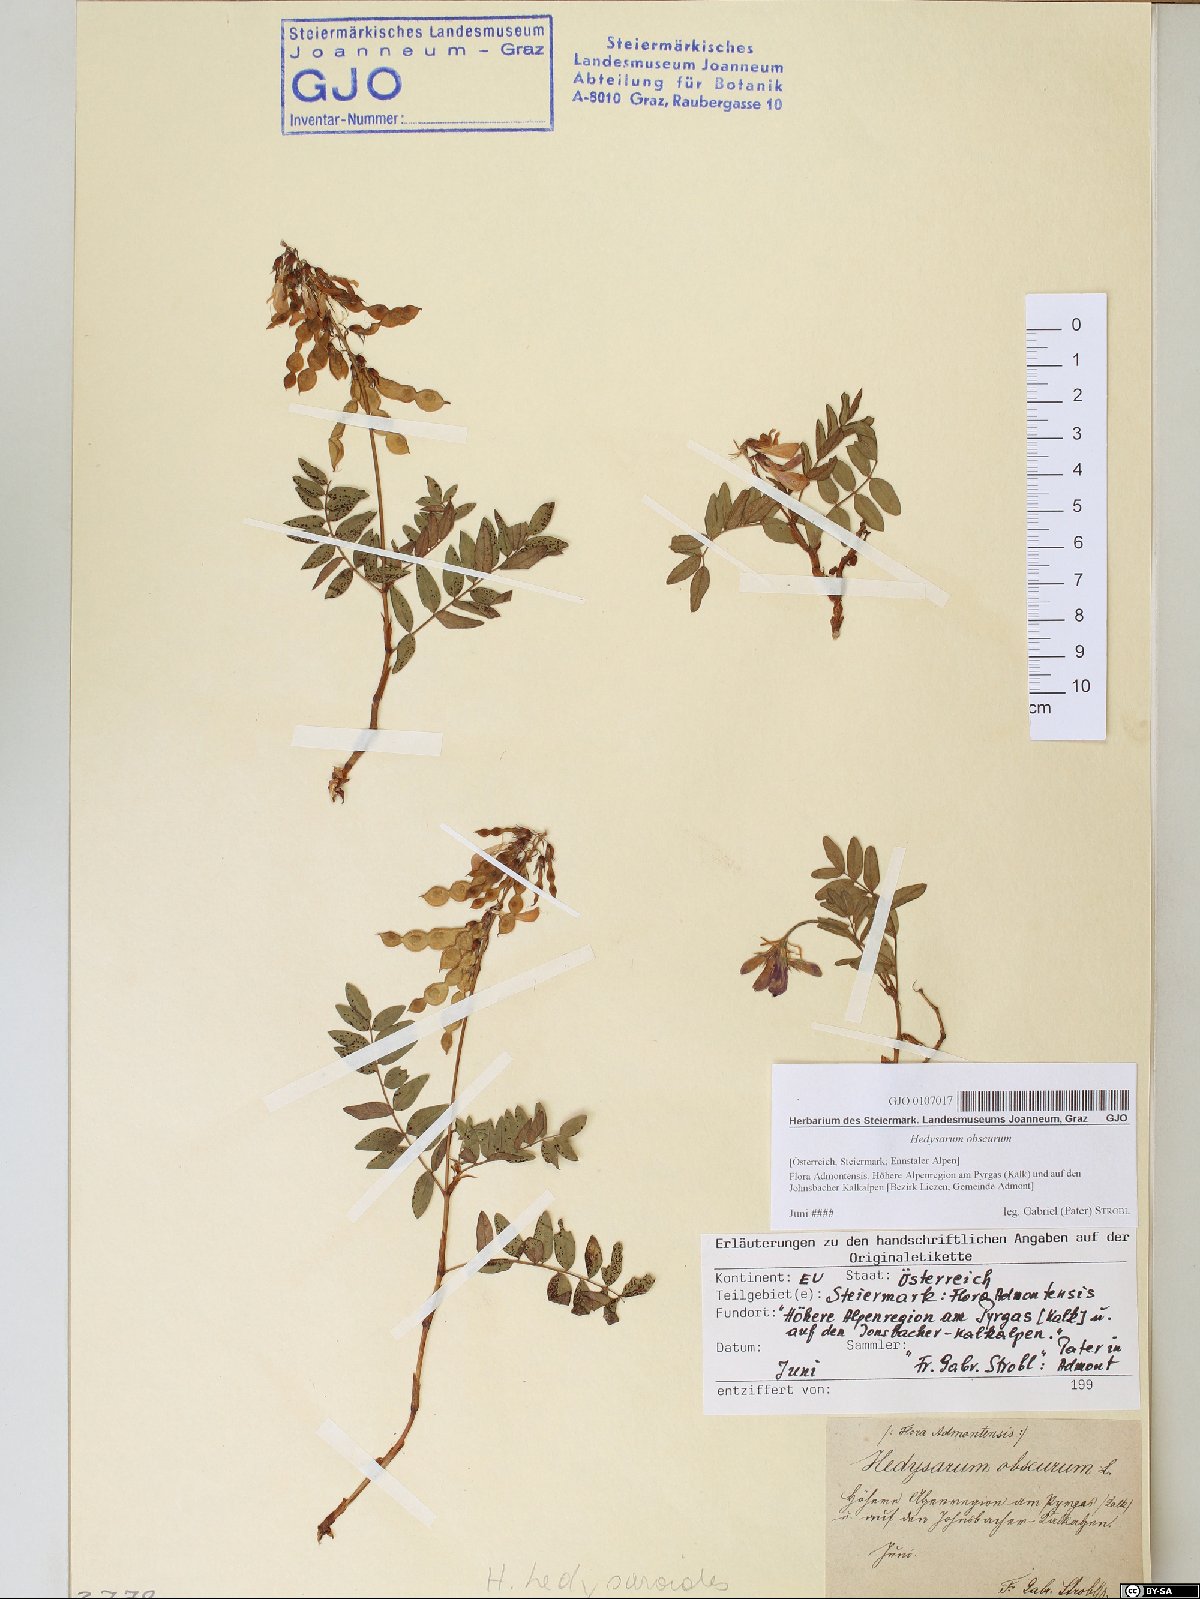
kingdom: Plantae
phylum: Tracheophyta
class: Magnoliopsida
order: Fabales
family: Fabaceae
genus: Hedysarum
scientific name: Hedysarum hedysaroides
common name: Alpine french-honeysuckle
